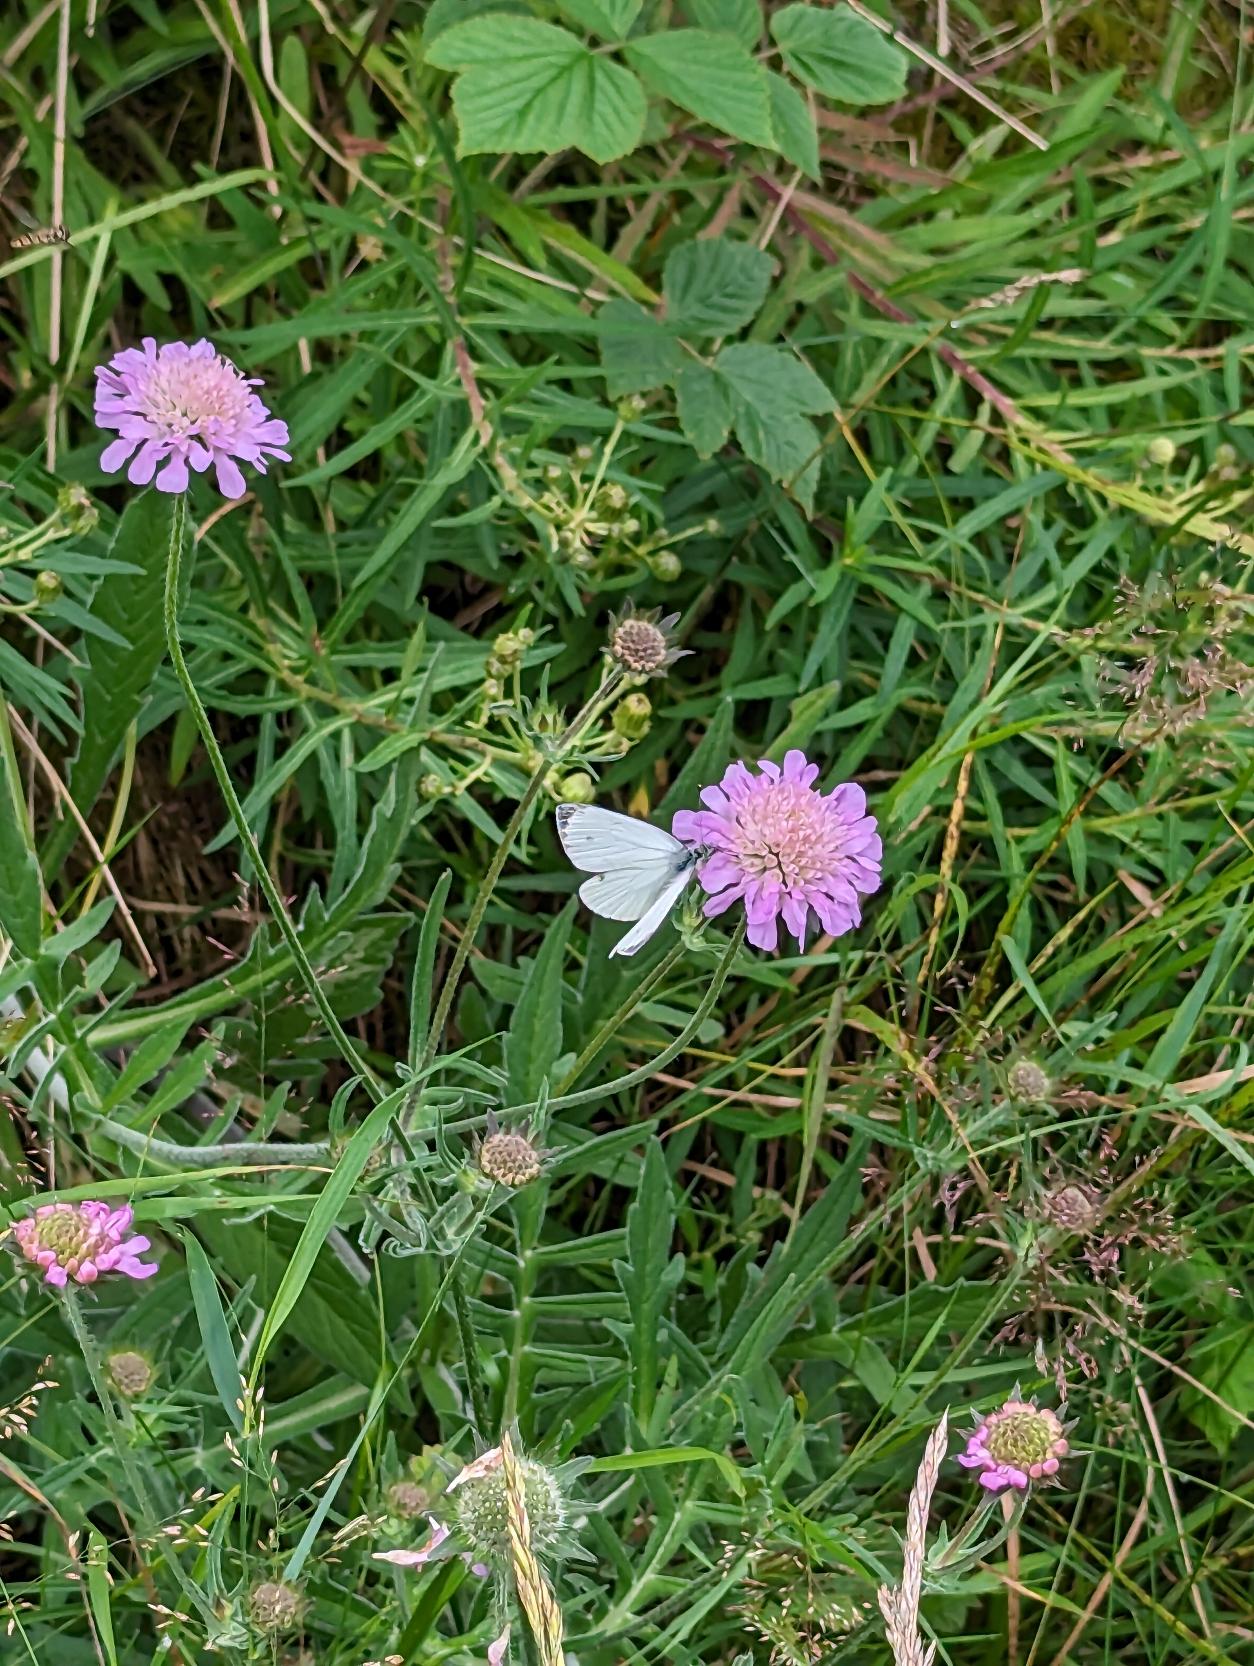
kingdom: Plantae
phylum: Tracheophyta
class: Magnoliopsida
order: Dipsacales
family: Caprifoliaceae
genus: Knautia
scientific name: Knautia arvensis
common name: Blåhat
